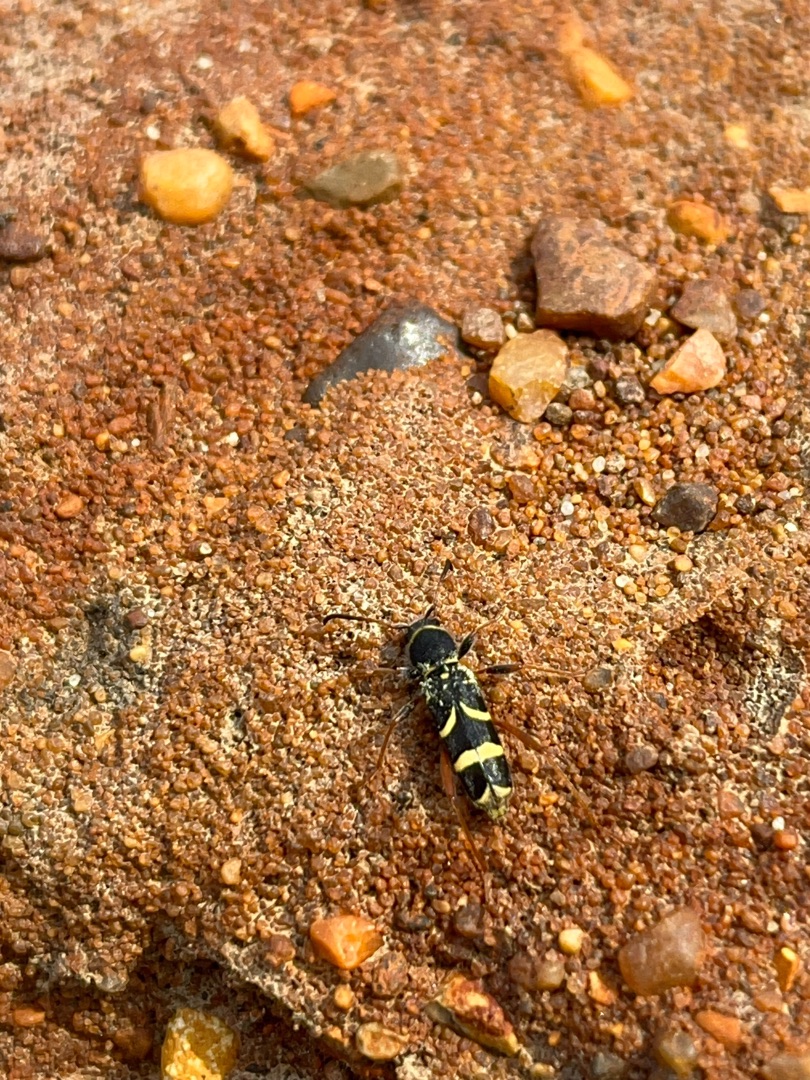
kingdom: Animalia
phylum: Arthropoda
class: Insecta
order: Coleoptera
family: Cerambycidae
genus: Clytus
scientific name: Clytus arietis
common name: Lille hvepsebuk
